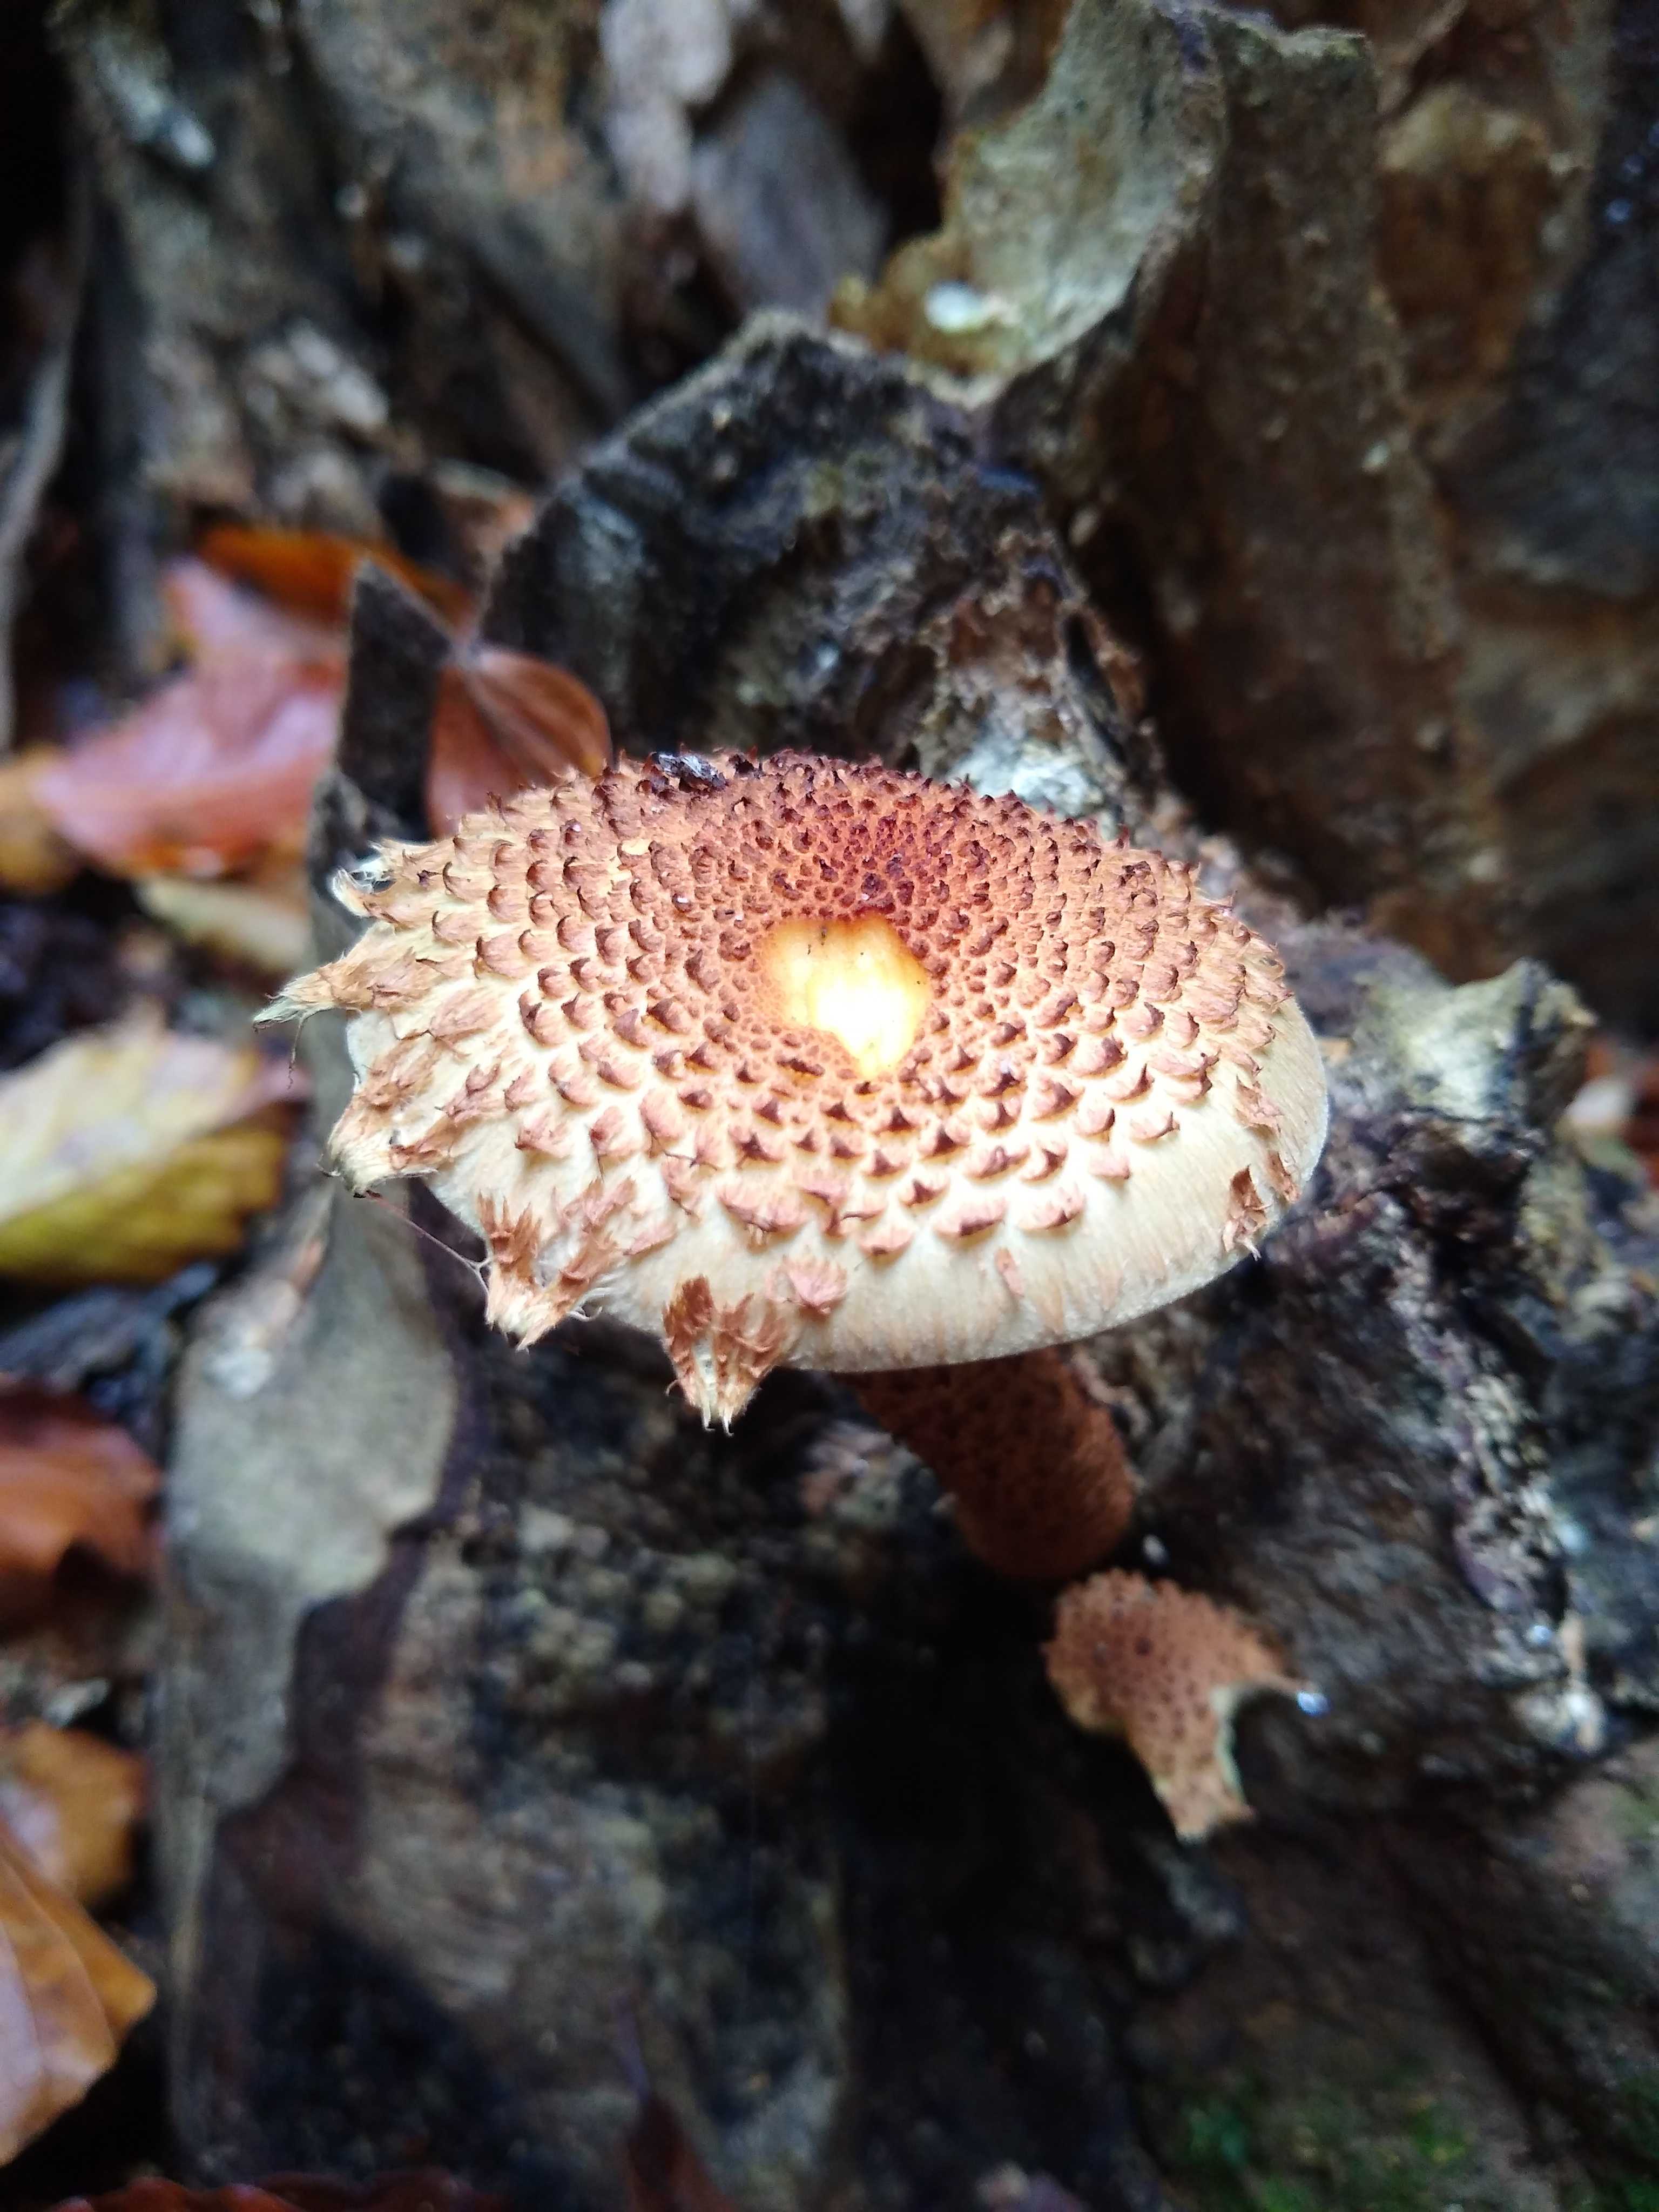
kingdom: Fungi
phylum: Basidiomycota
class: Agaricomycetes
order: Agaricales
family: Strophariaceae
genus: Pholiota
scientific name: Pholiota squarrosa
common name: krumskællet skælhat
